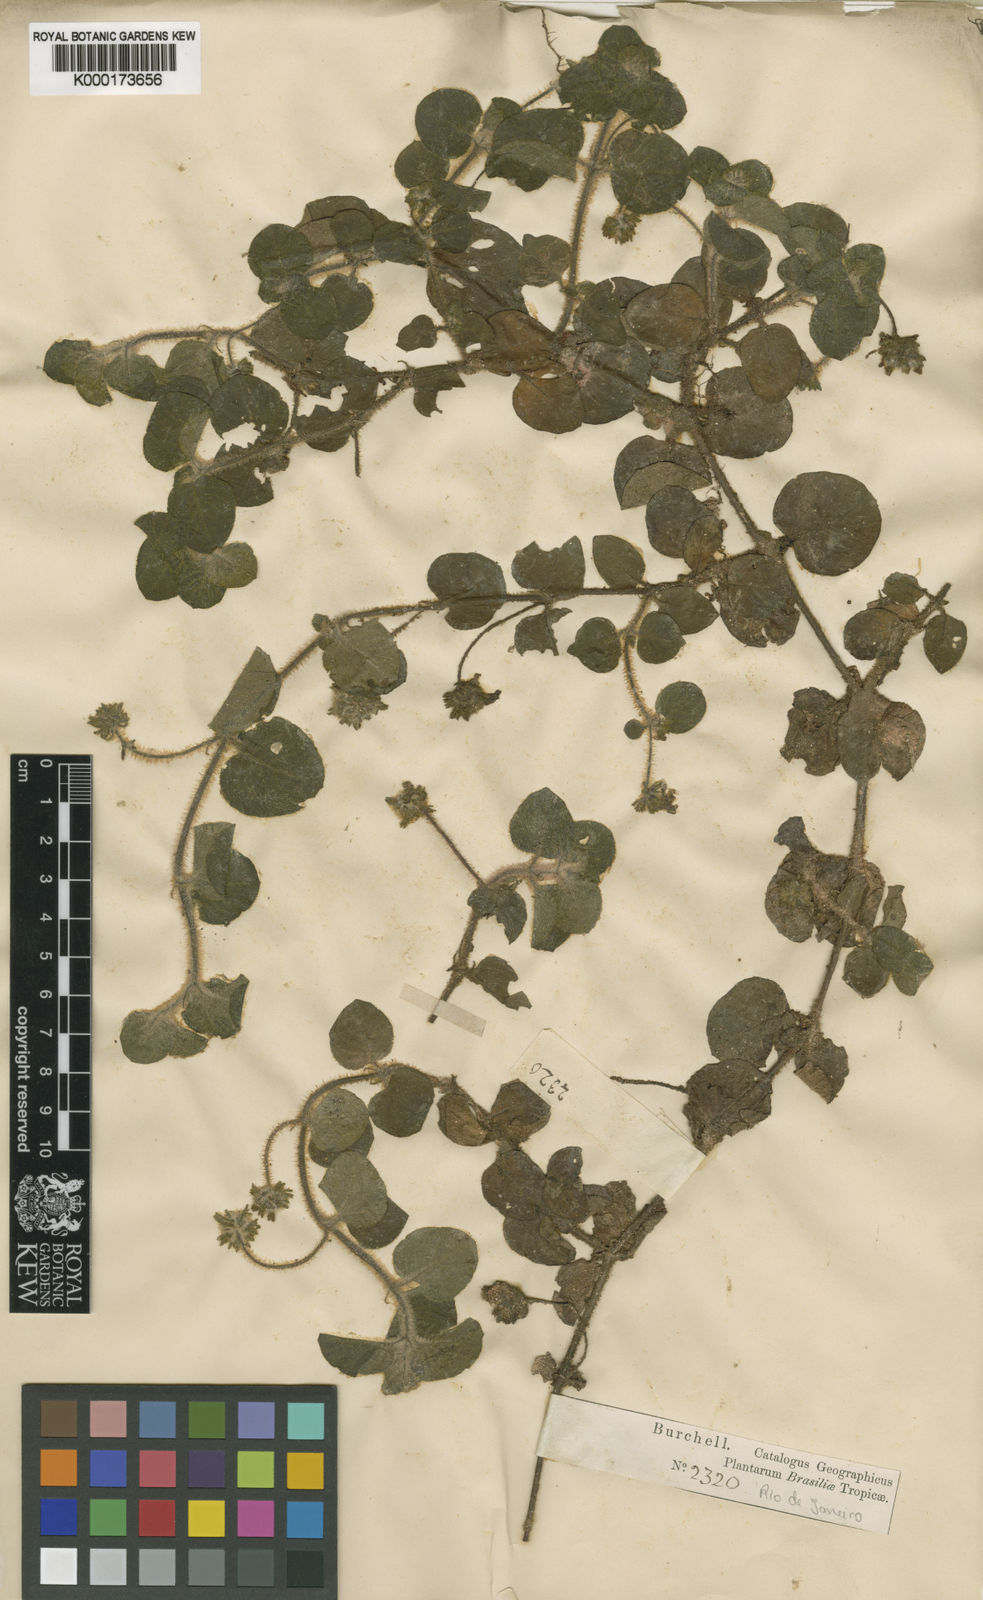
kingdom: Plantae
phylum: Tracheophyta
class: Magnoliopsida
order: Gentianales
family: Rubiaceae
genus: Coccocypselum
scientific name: Coccocypselum
